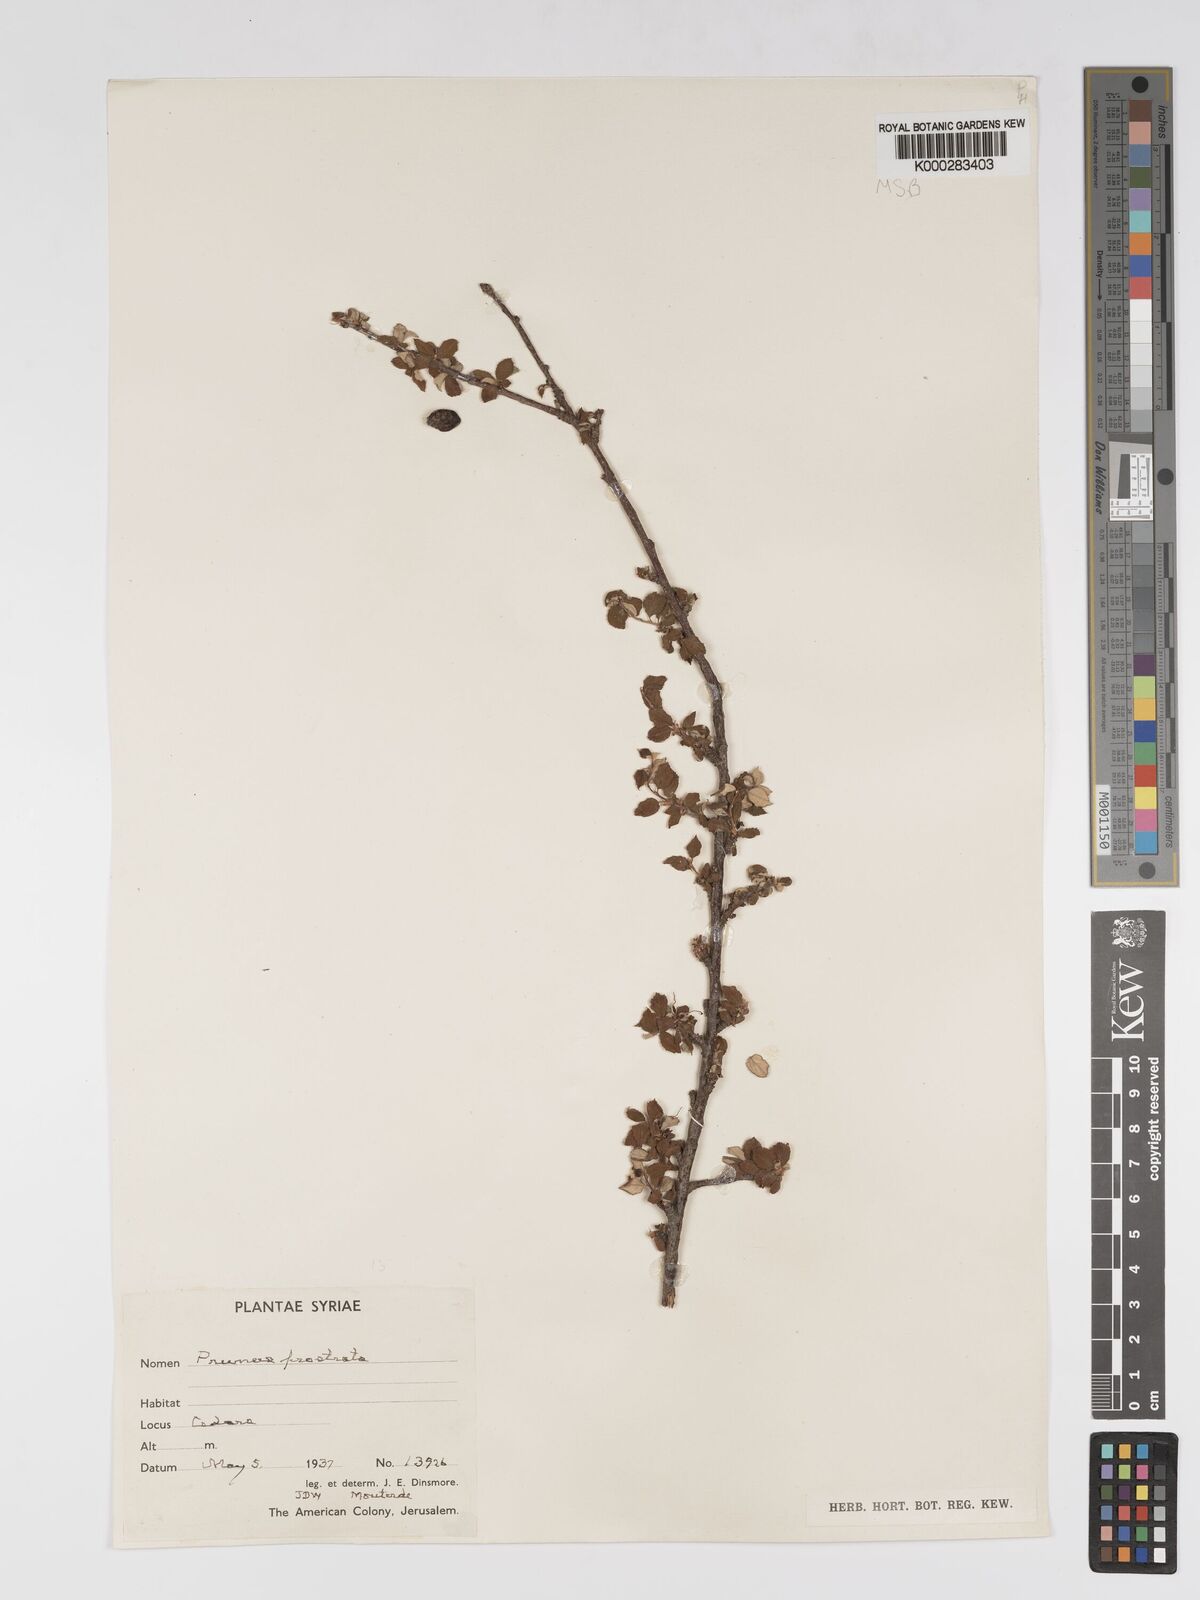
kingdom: Plantae
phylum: Tracheophyta
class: Magnoliopsida
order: Rosales
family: Rosaceae
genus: Prunus
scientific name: Prunus prostrata
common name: Mountain cherry
